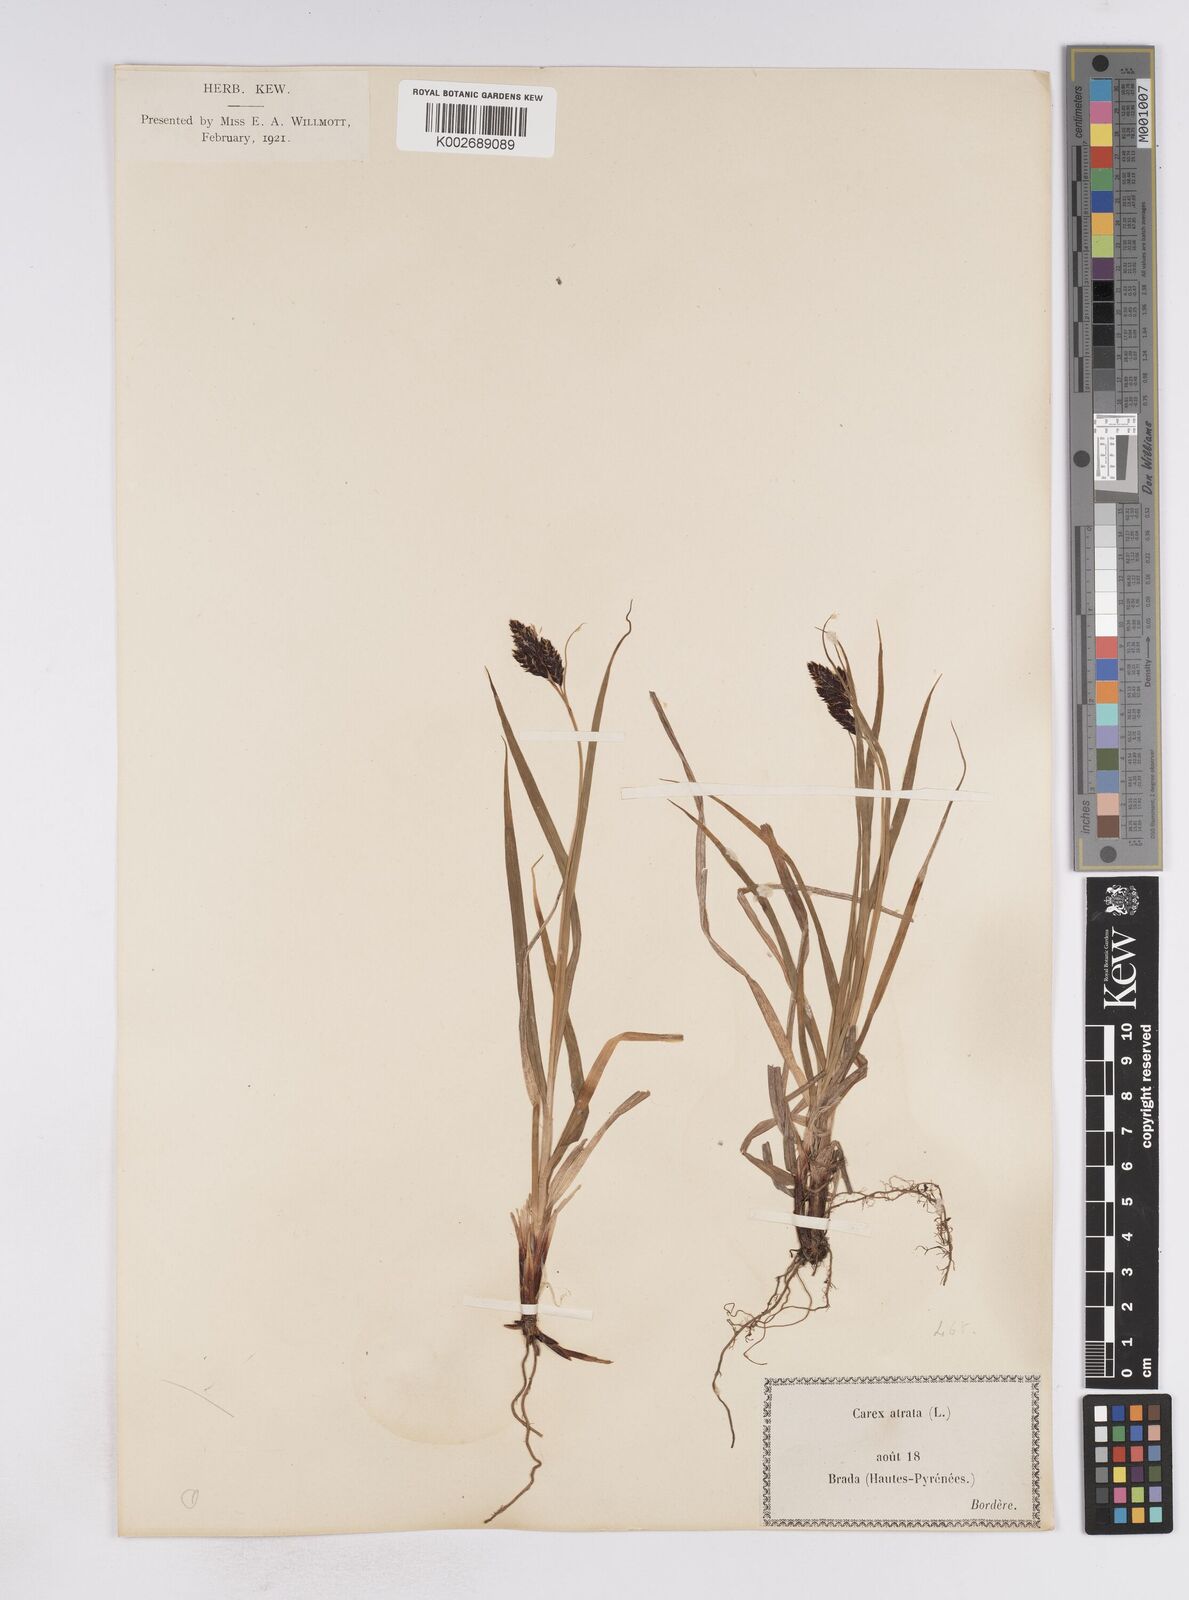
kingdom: Plantae
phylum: Tracheophyta
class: Liliopsida
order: Poales
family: Cyperaceae
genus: Carex
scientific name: Carex atrata
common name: Black alpine sedge
